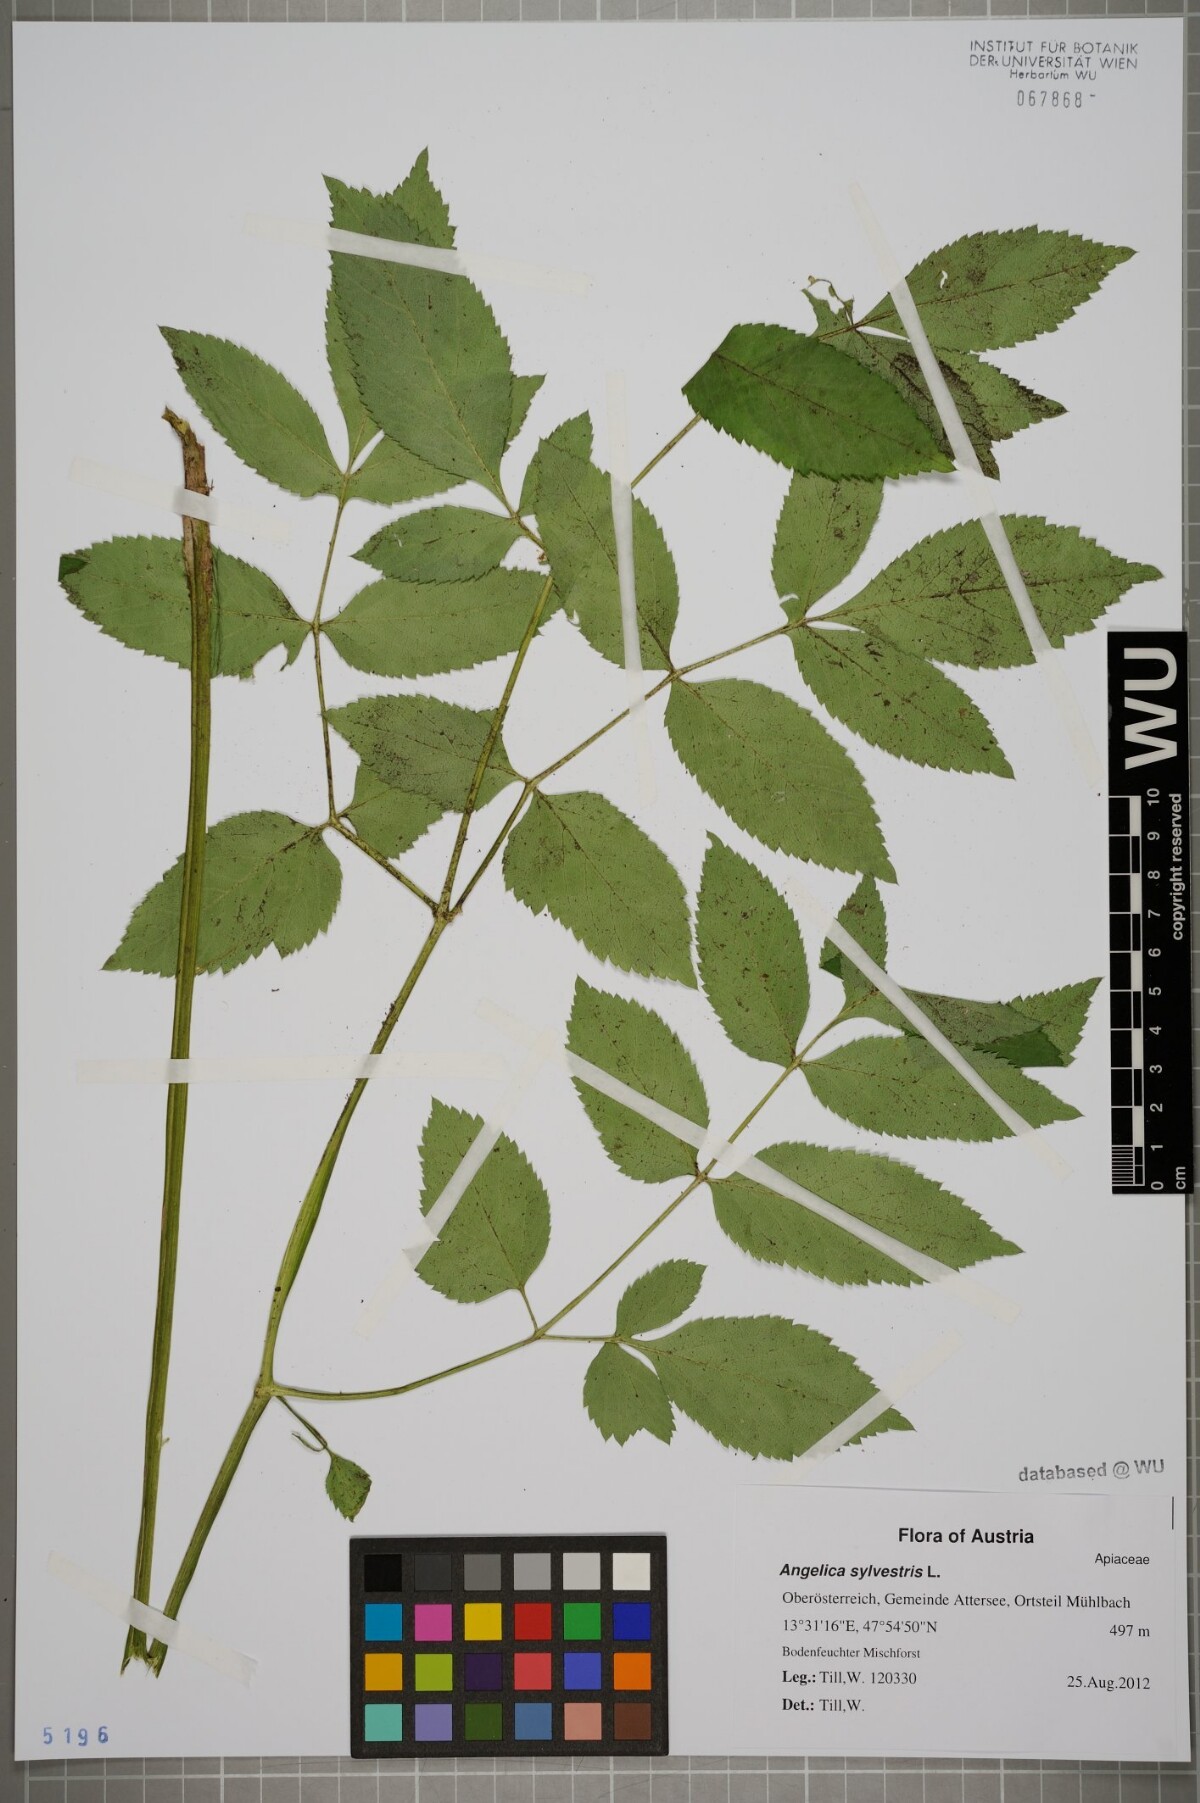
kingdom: Plantae
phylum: Tracheophyta
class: Magnoliopsida
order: Apiales
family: Apiaceae
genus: Angelica
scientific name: Angelica sylvestris
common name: Wild angelica
